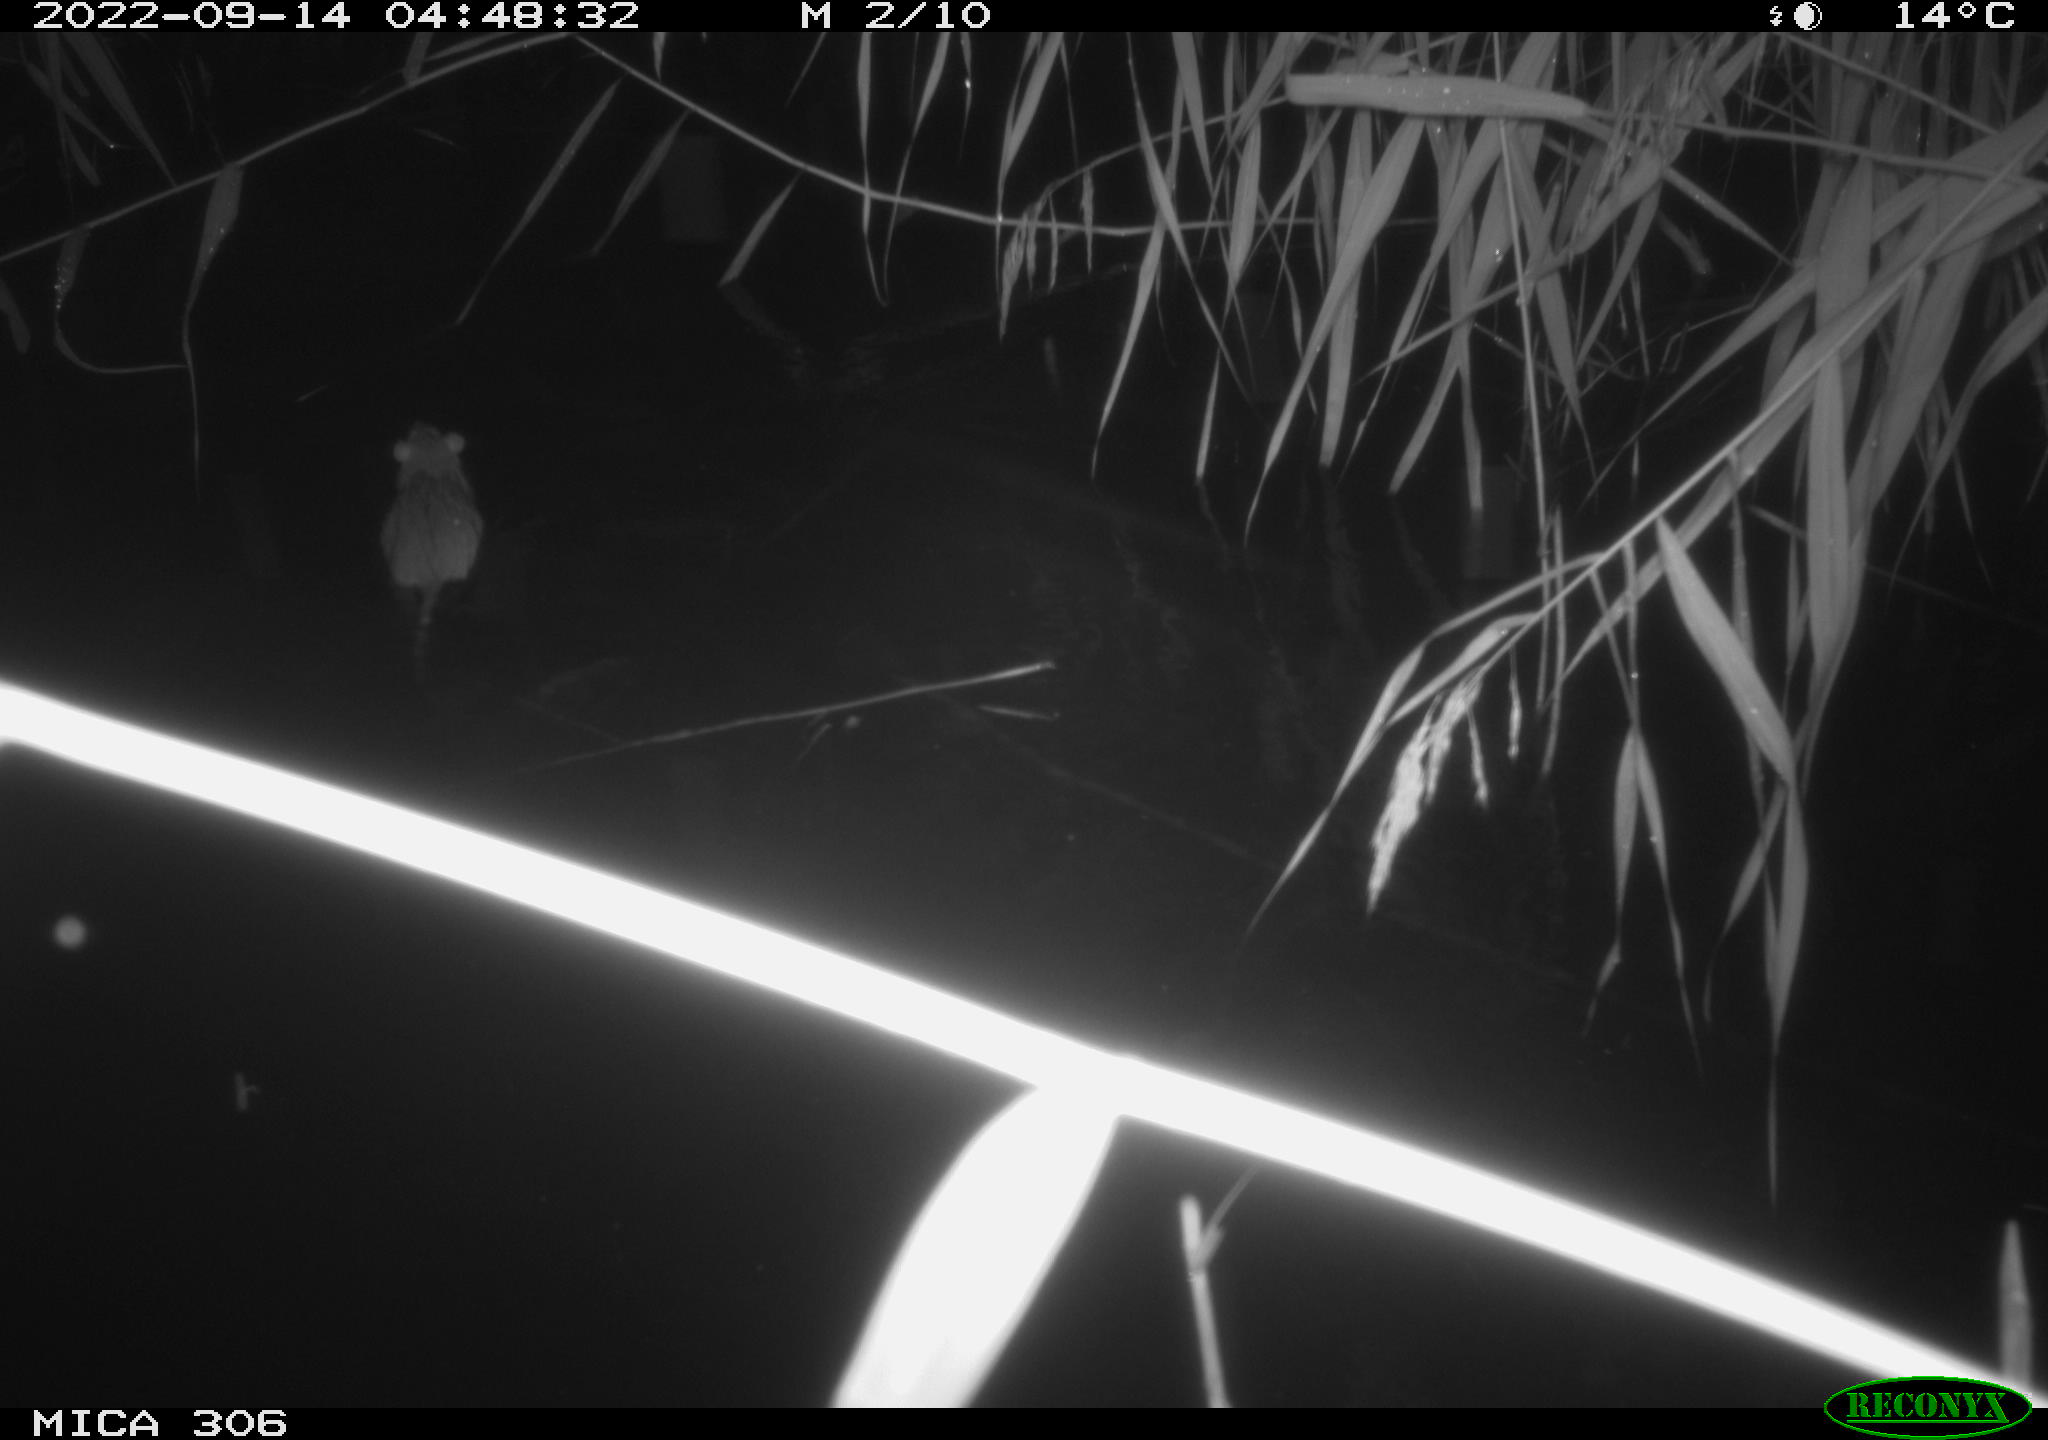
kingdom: Animalia
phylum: Chordata
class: Mammalia
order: Rodentia
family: Muridae
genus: Rattus
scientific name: Rattus norvegicus
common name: Brown rat
